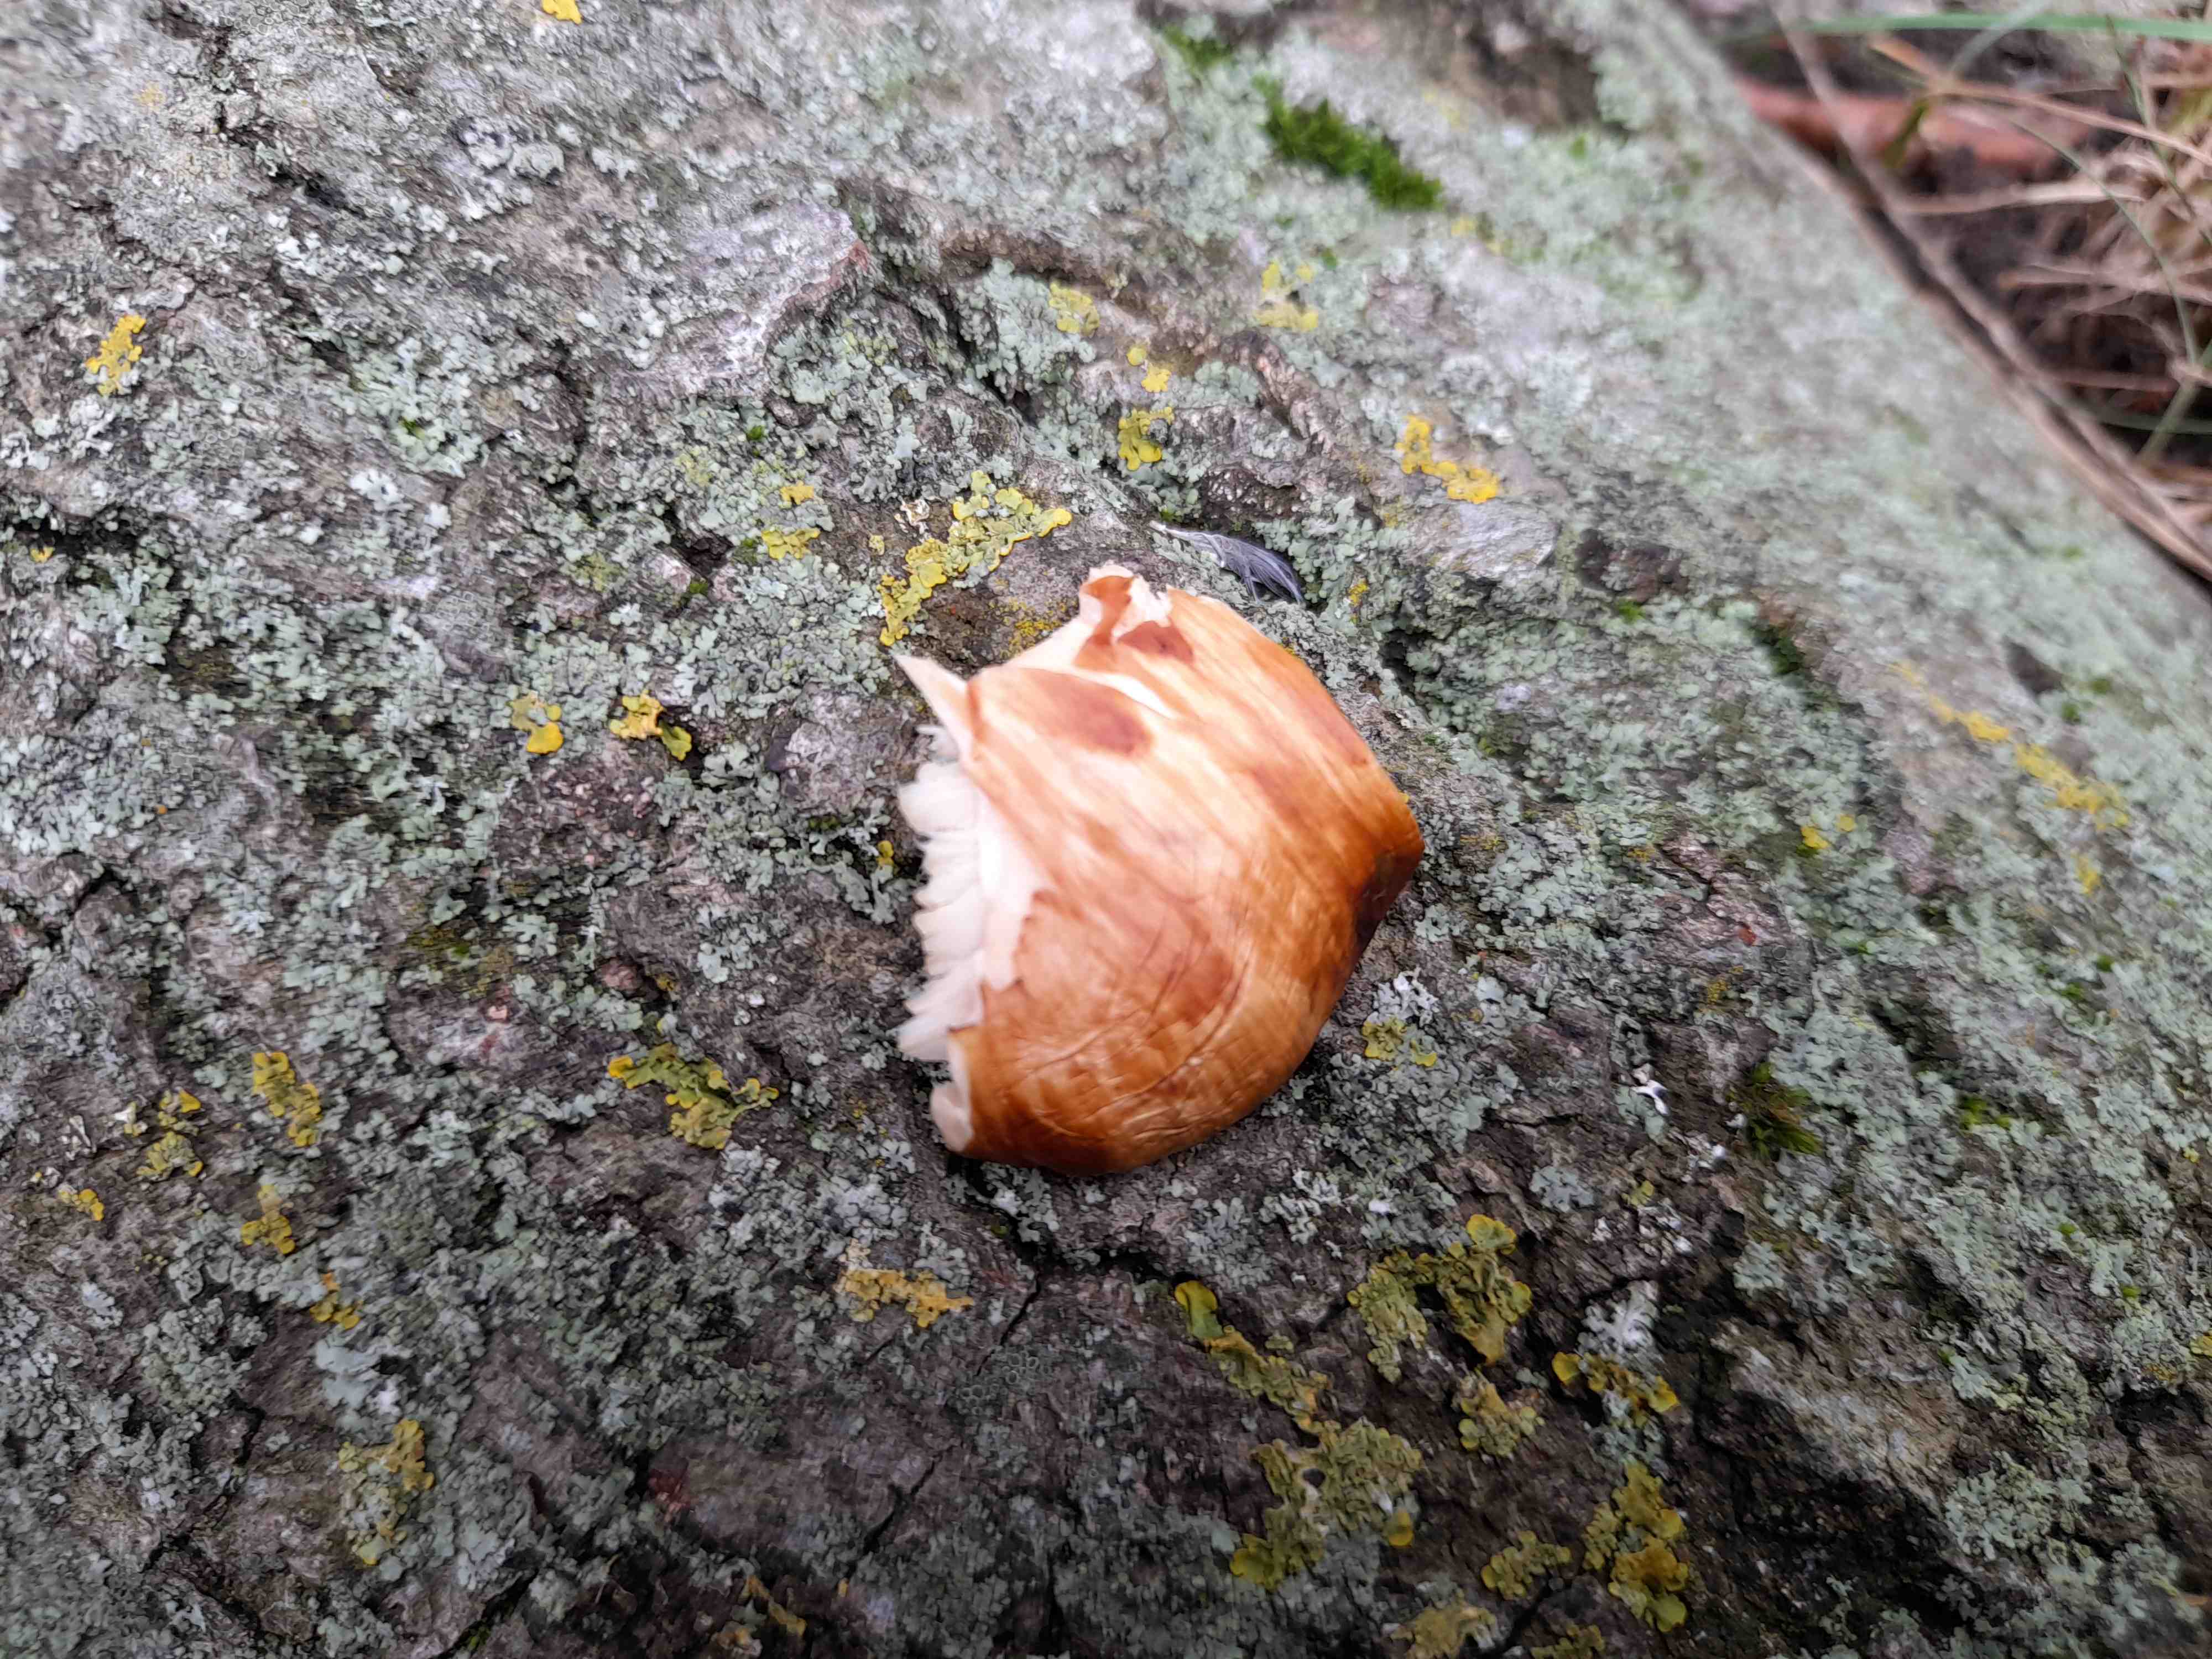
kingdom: Fungi
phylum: Basidiomycota
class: Agaricomycetes
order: Polyporales
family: Polyporaceae
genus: Cerioporus
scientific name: Cerioporus squamosus
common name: skællet stilkporesvamp
